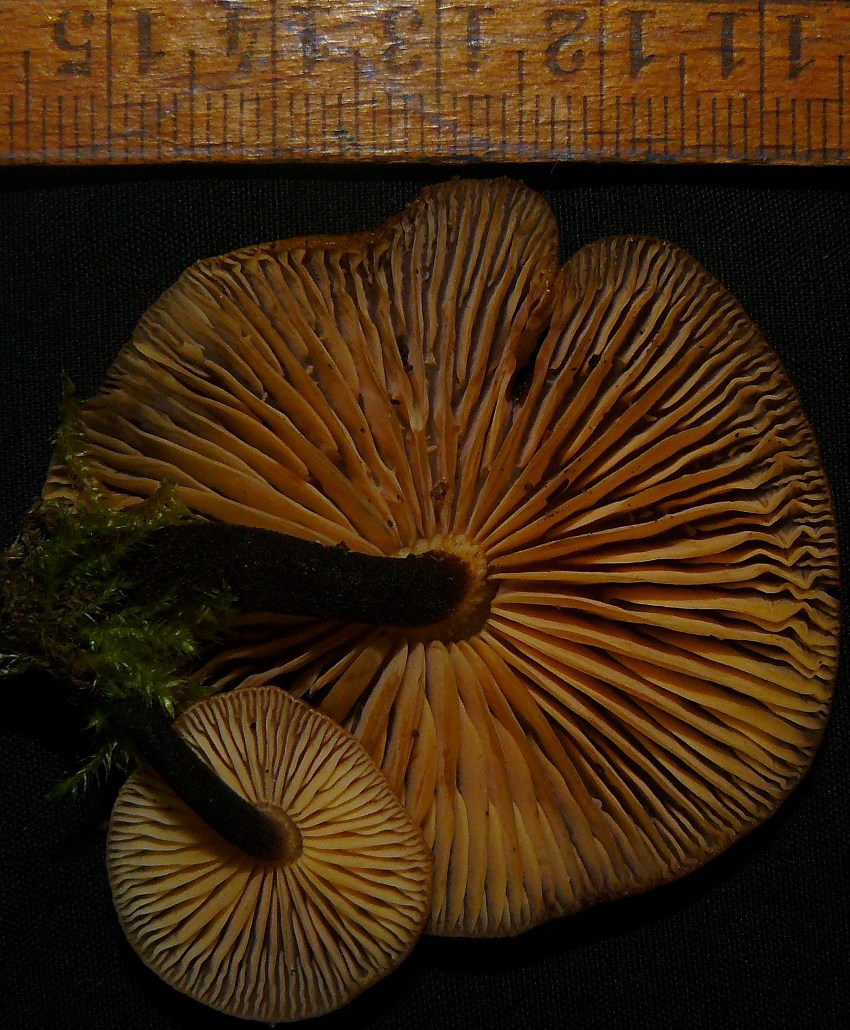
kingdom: Fungi
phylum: Basidiomycota
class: Agaricomycetes
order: Agaricales
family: Physalacriaceae
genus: Flammulina
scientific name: Flammulina elastica
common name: pile-fløjlsfod
